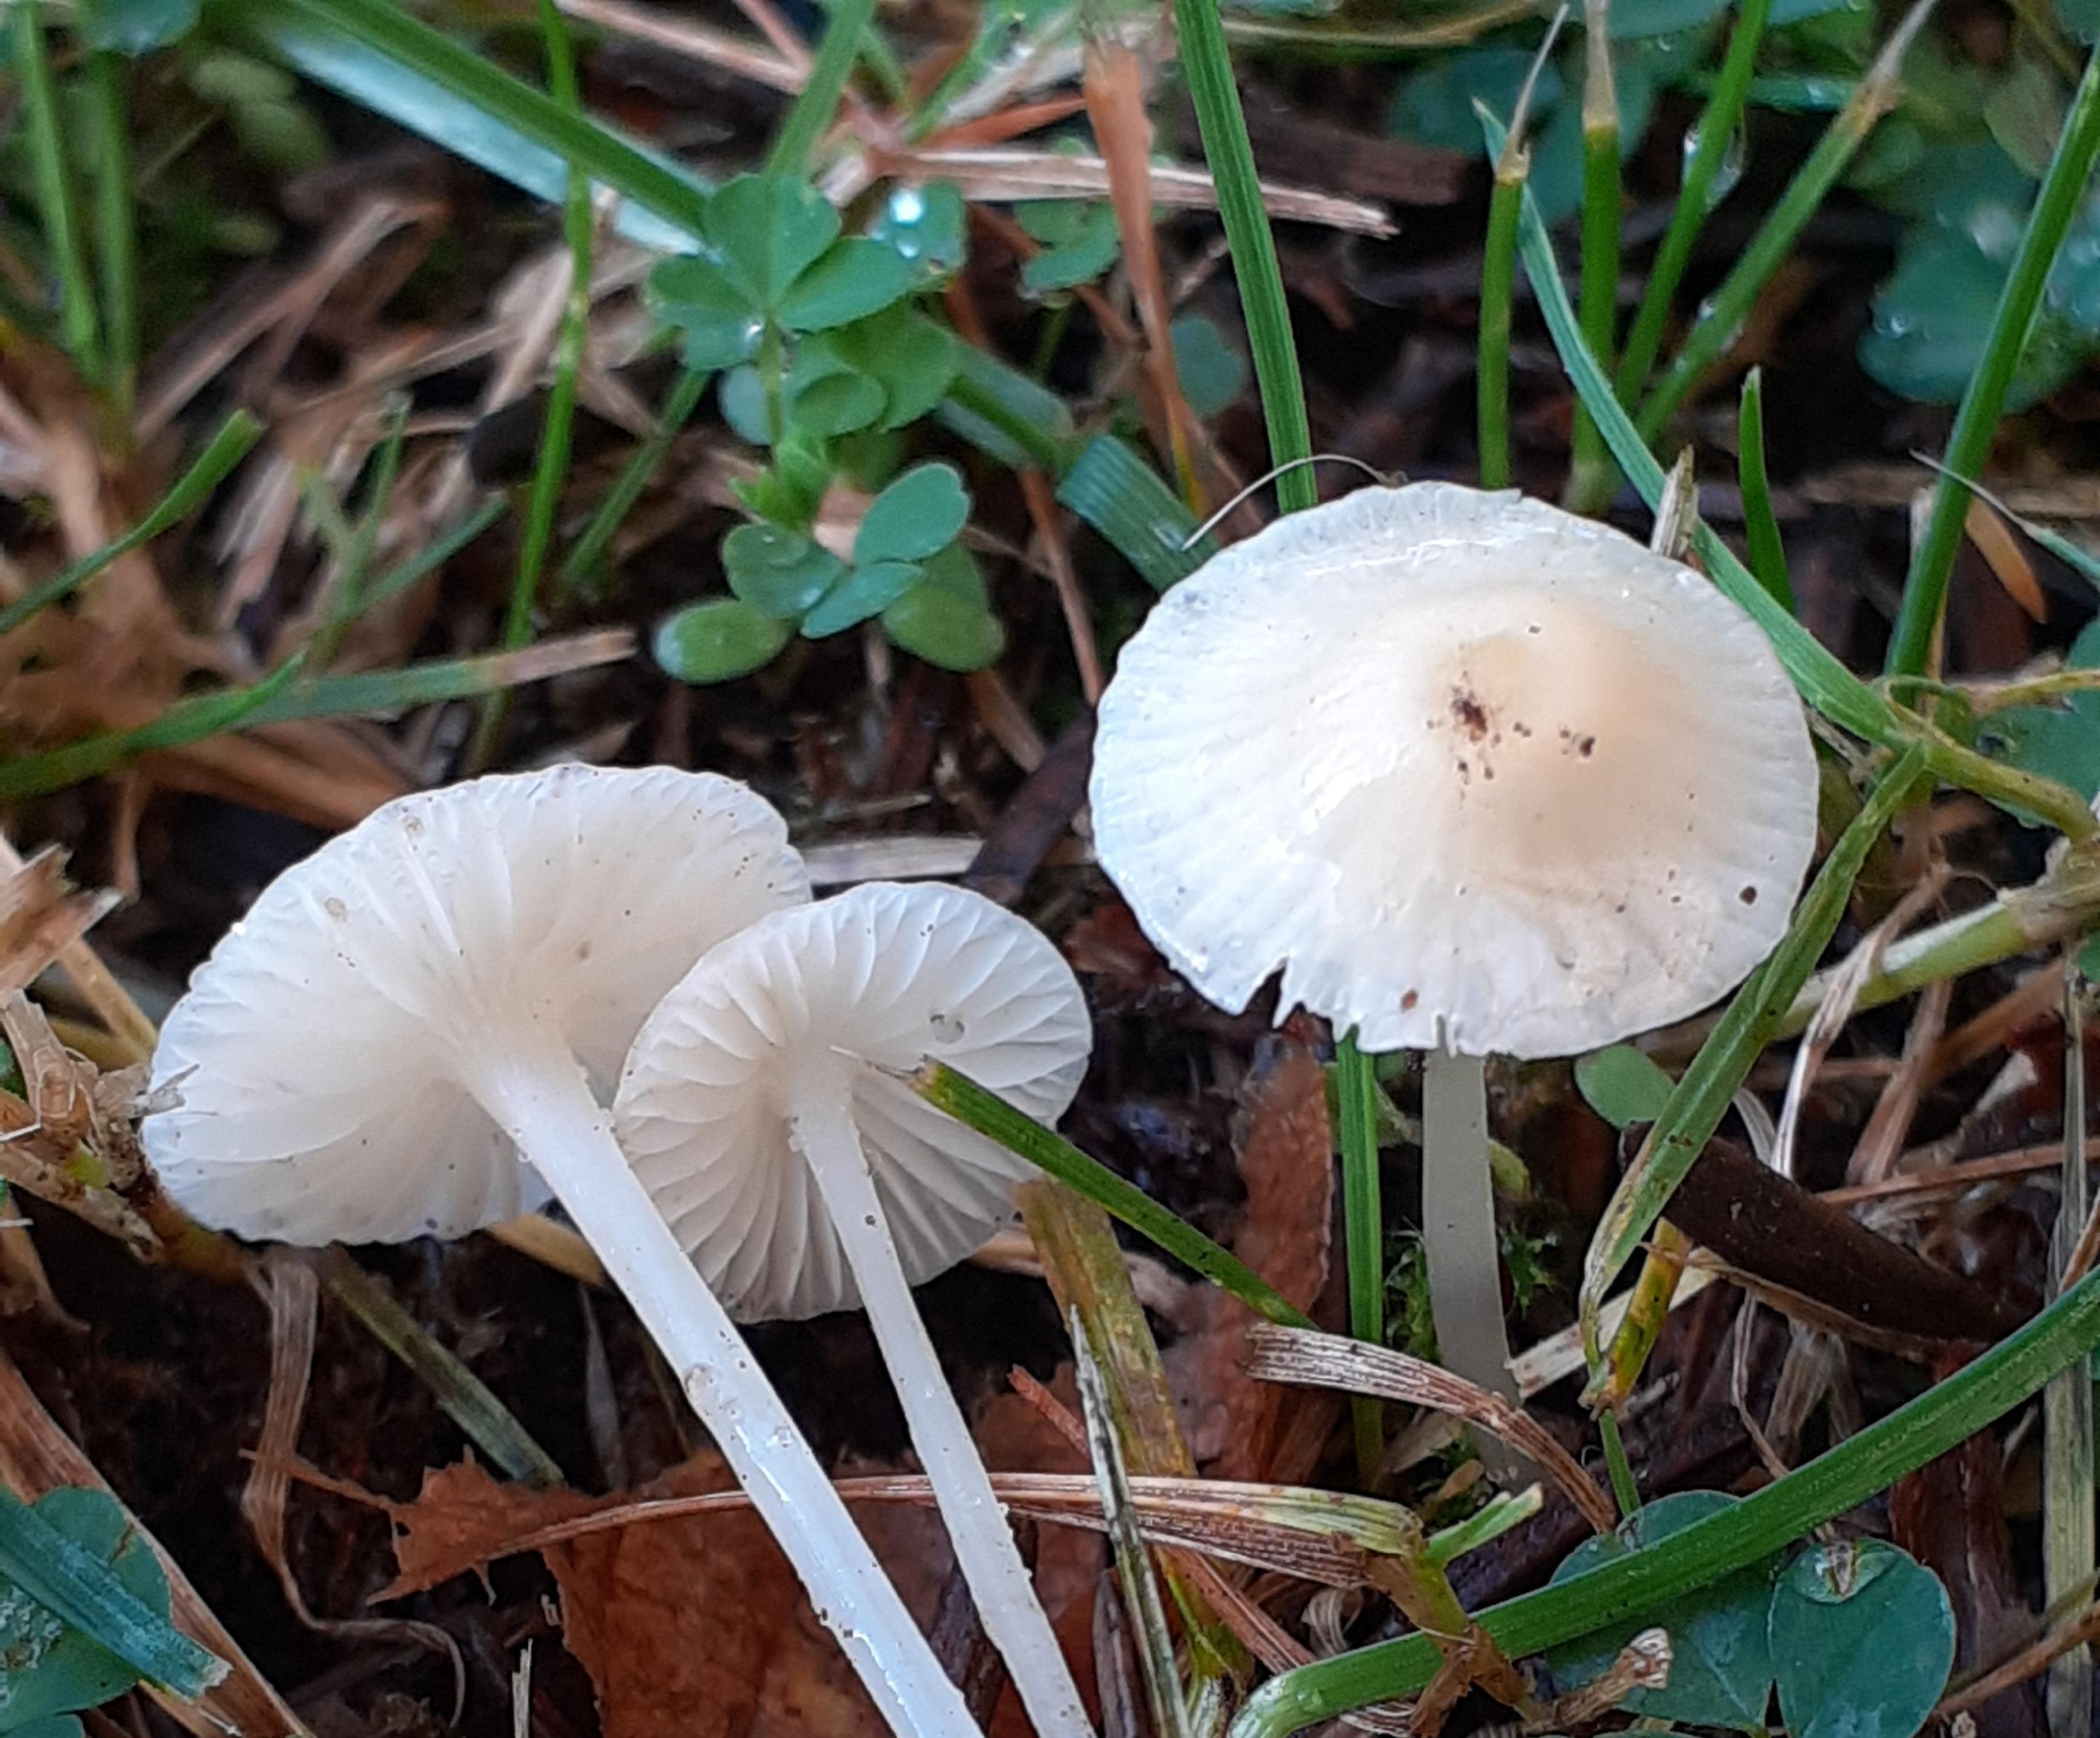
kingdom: Fungi
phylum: Basidiomycota
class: Agaricomycetes
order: Agaricales
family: Mycenaceae
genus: Atheniella
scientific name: Atheniella flavoalba
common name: gulhvid huesvamp
